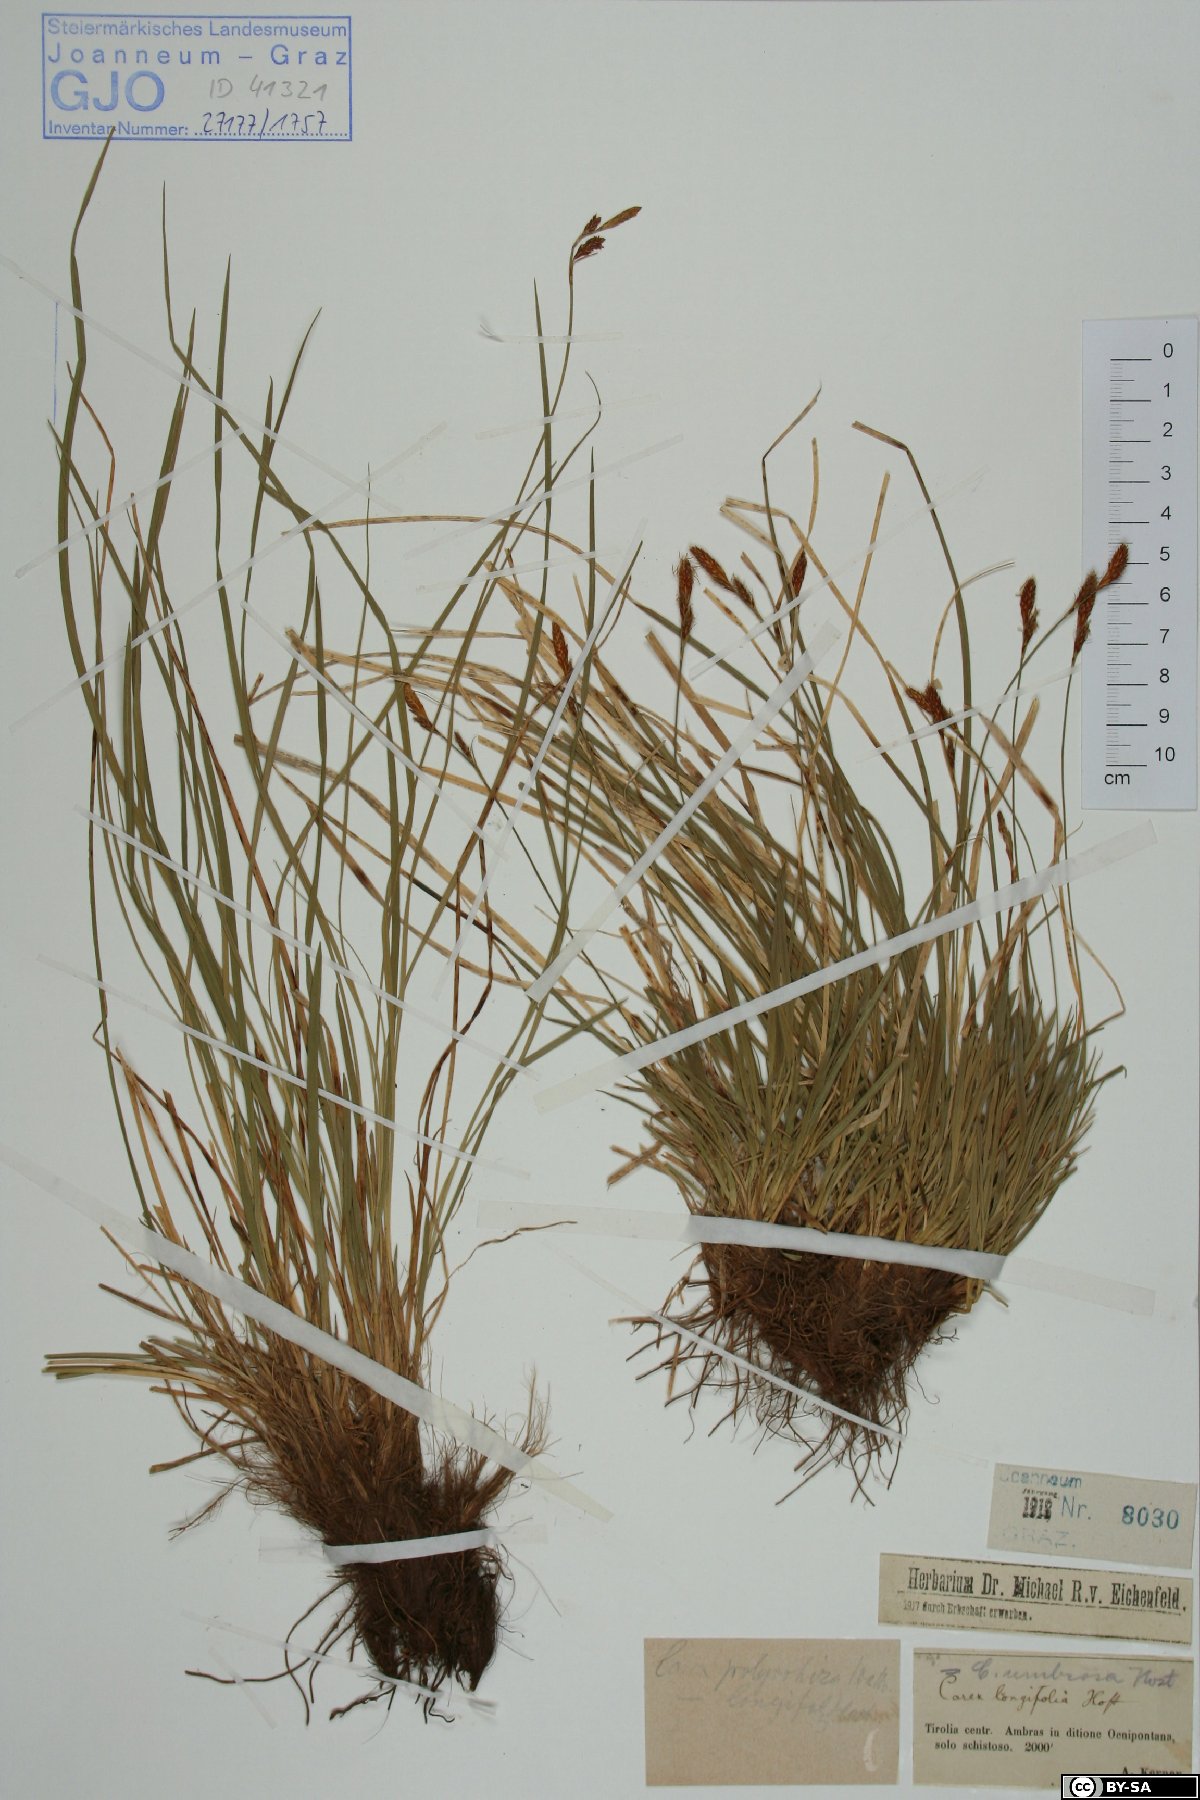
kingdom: Plantae
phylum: Tracheophyta
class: Liliopsida
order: Poales
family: Cyperaceae
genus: Carex
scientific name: Carex umbrosa
